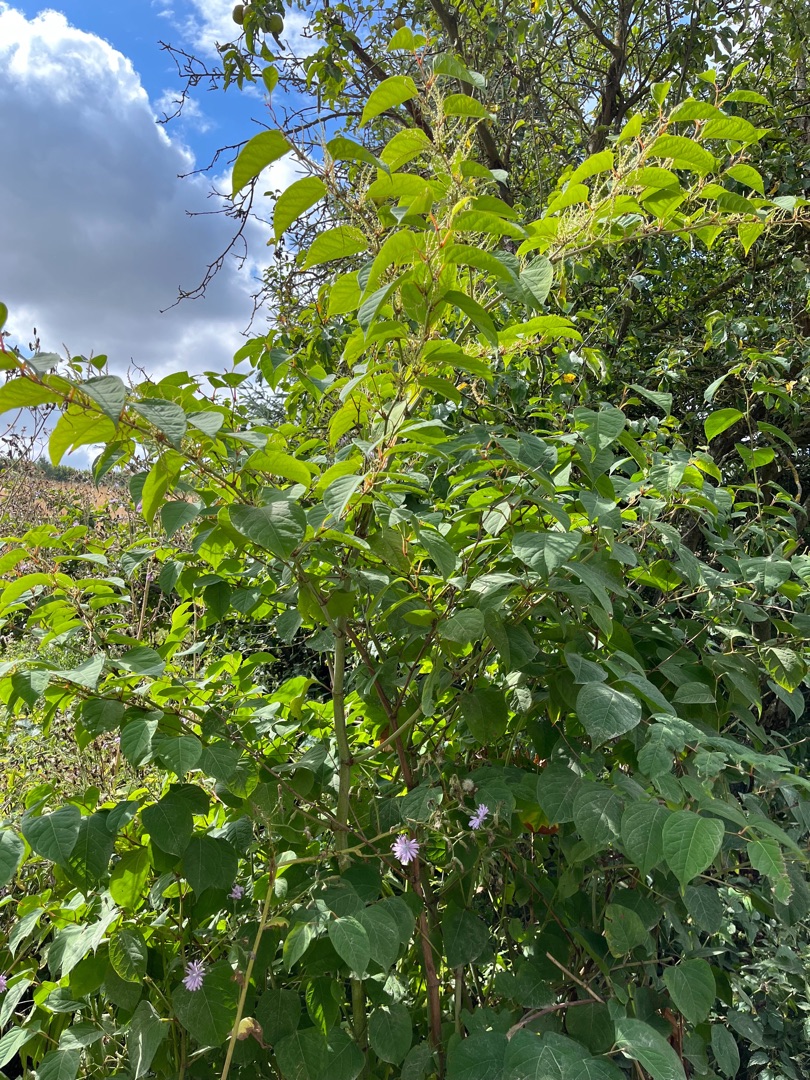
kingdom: Plantae
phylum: Tracheophyta
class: Magnoliopsida
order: Caryophyllales
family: Polygonaceae
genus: Reynoutria
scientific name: Reynoutria japonica
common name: Japan-pileurt
